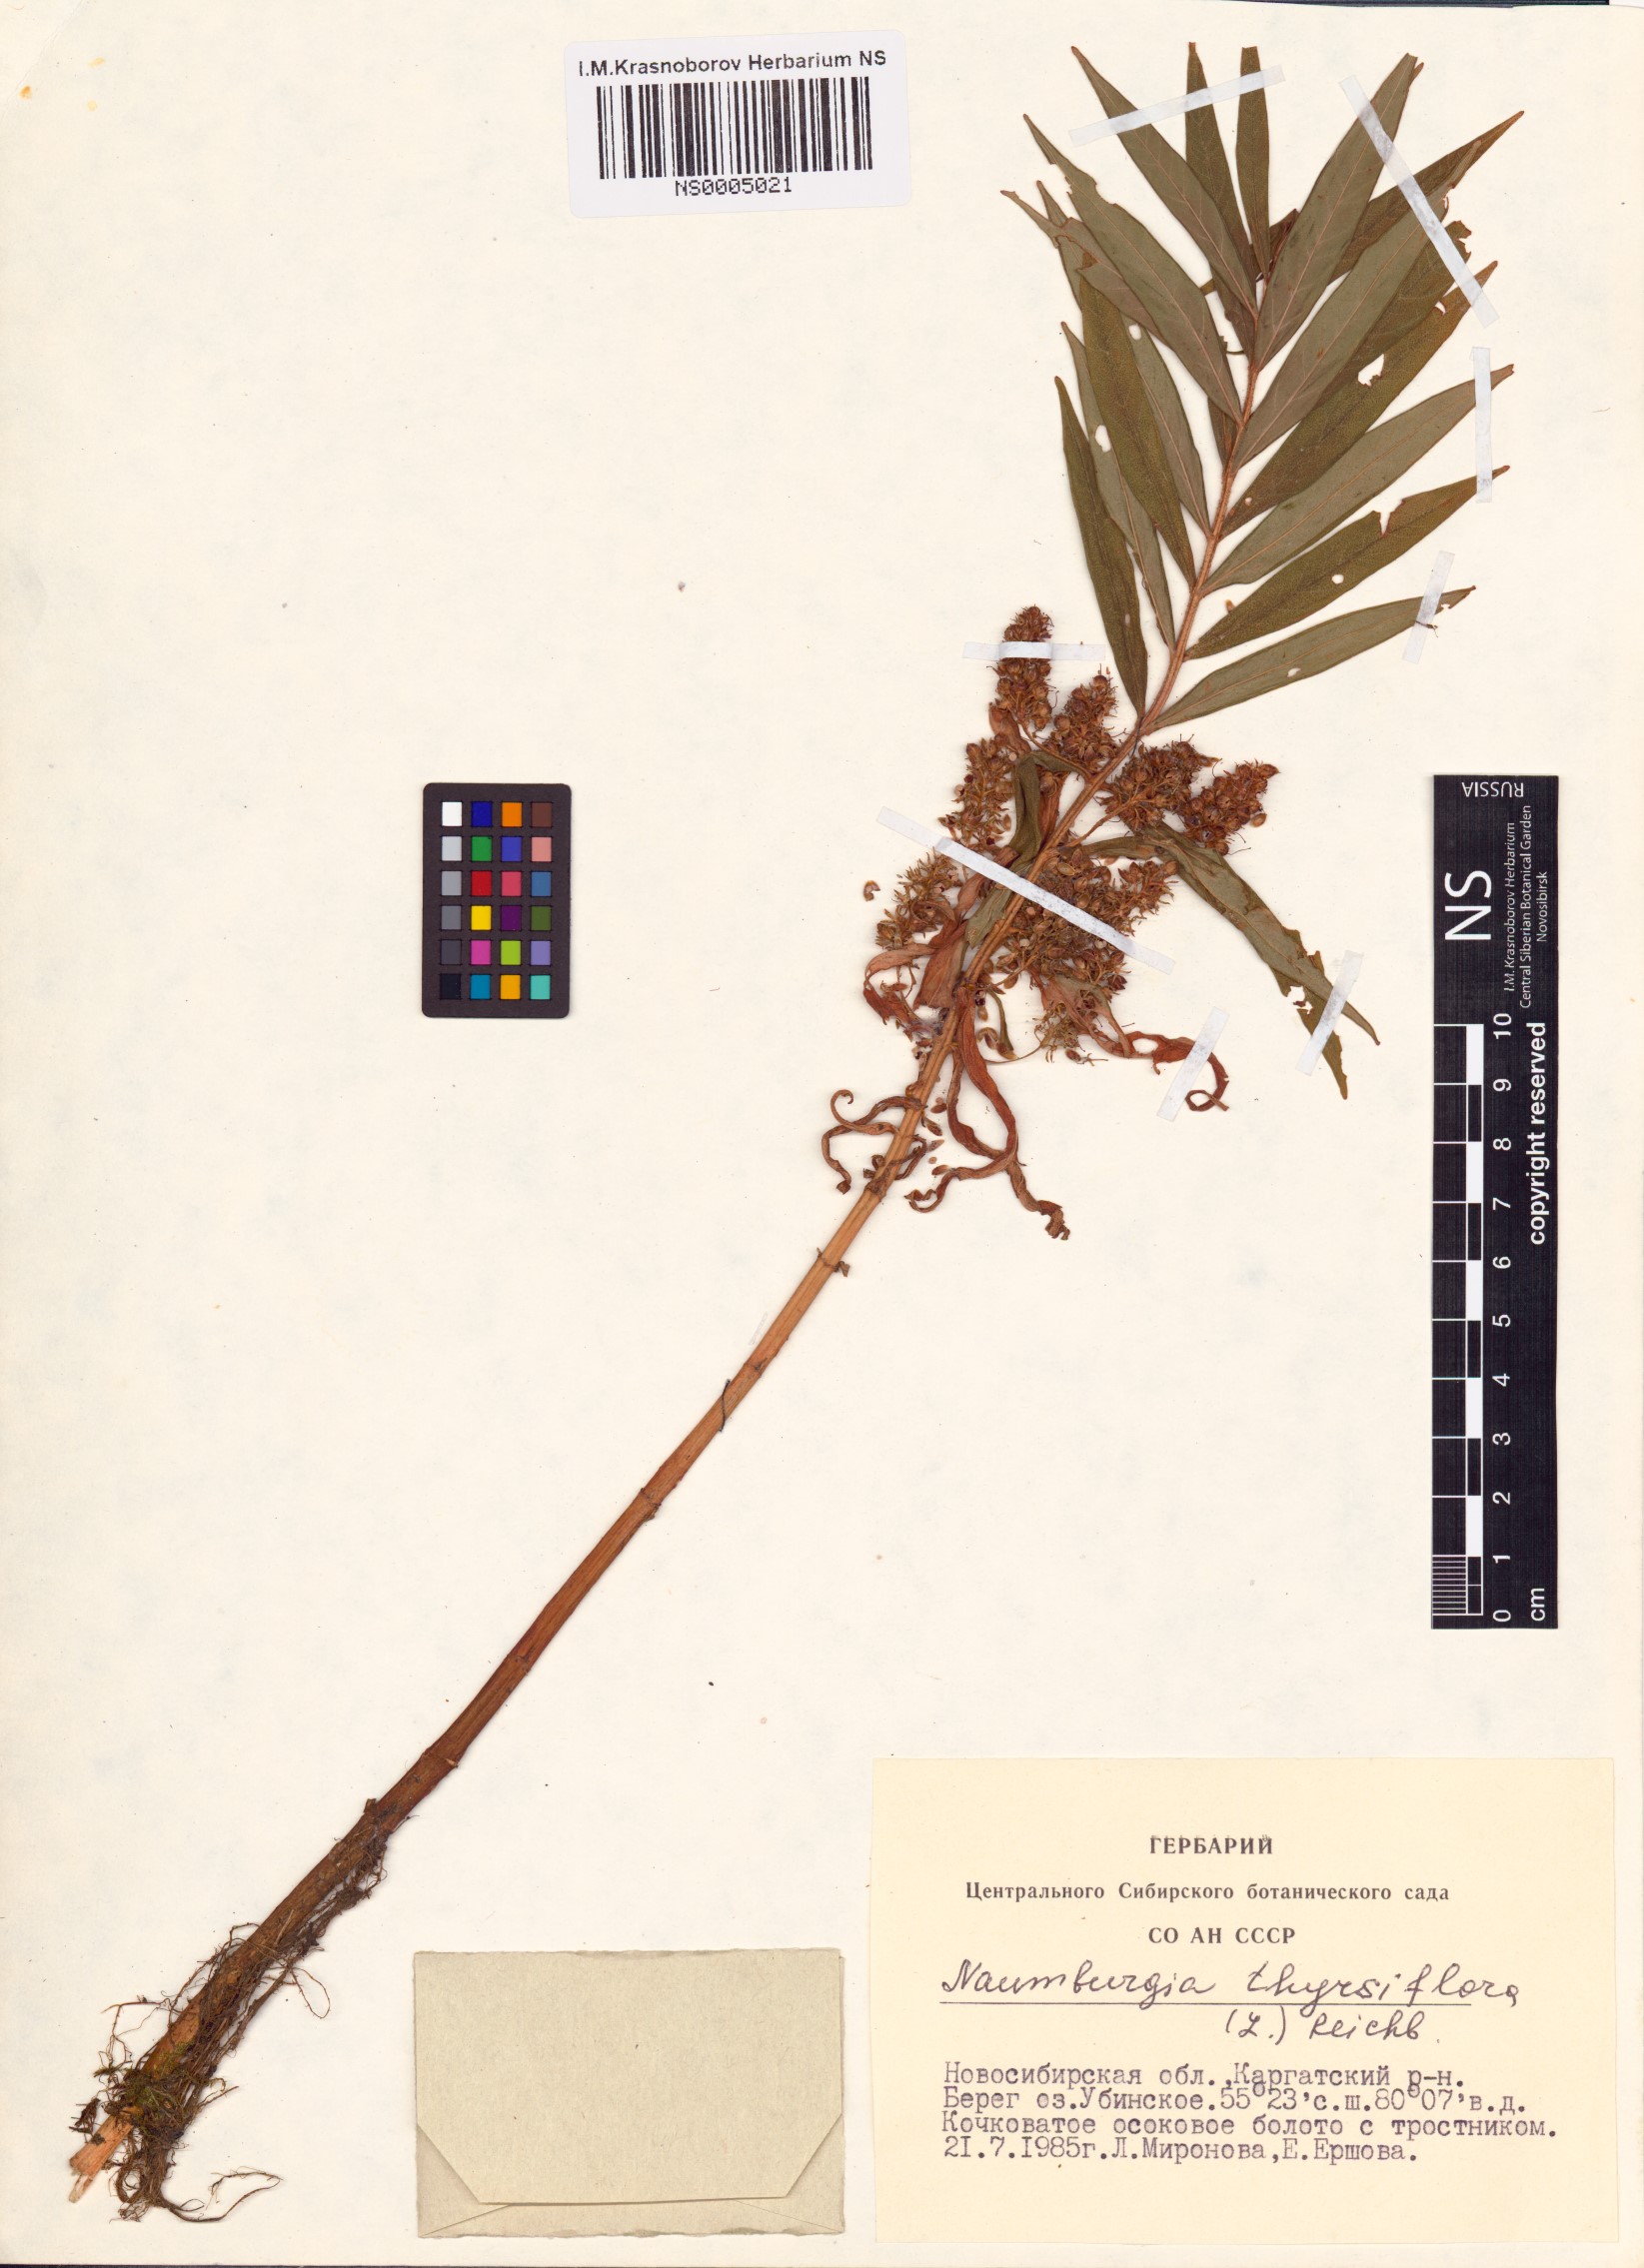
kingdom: Plantae
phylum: Tracheophyta
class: Magnoliopsida
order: Ericales
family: Primulaceae
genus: Lysimachia
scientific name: Lysimachia thyrsiflora
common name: Tufted loosestrife
